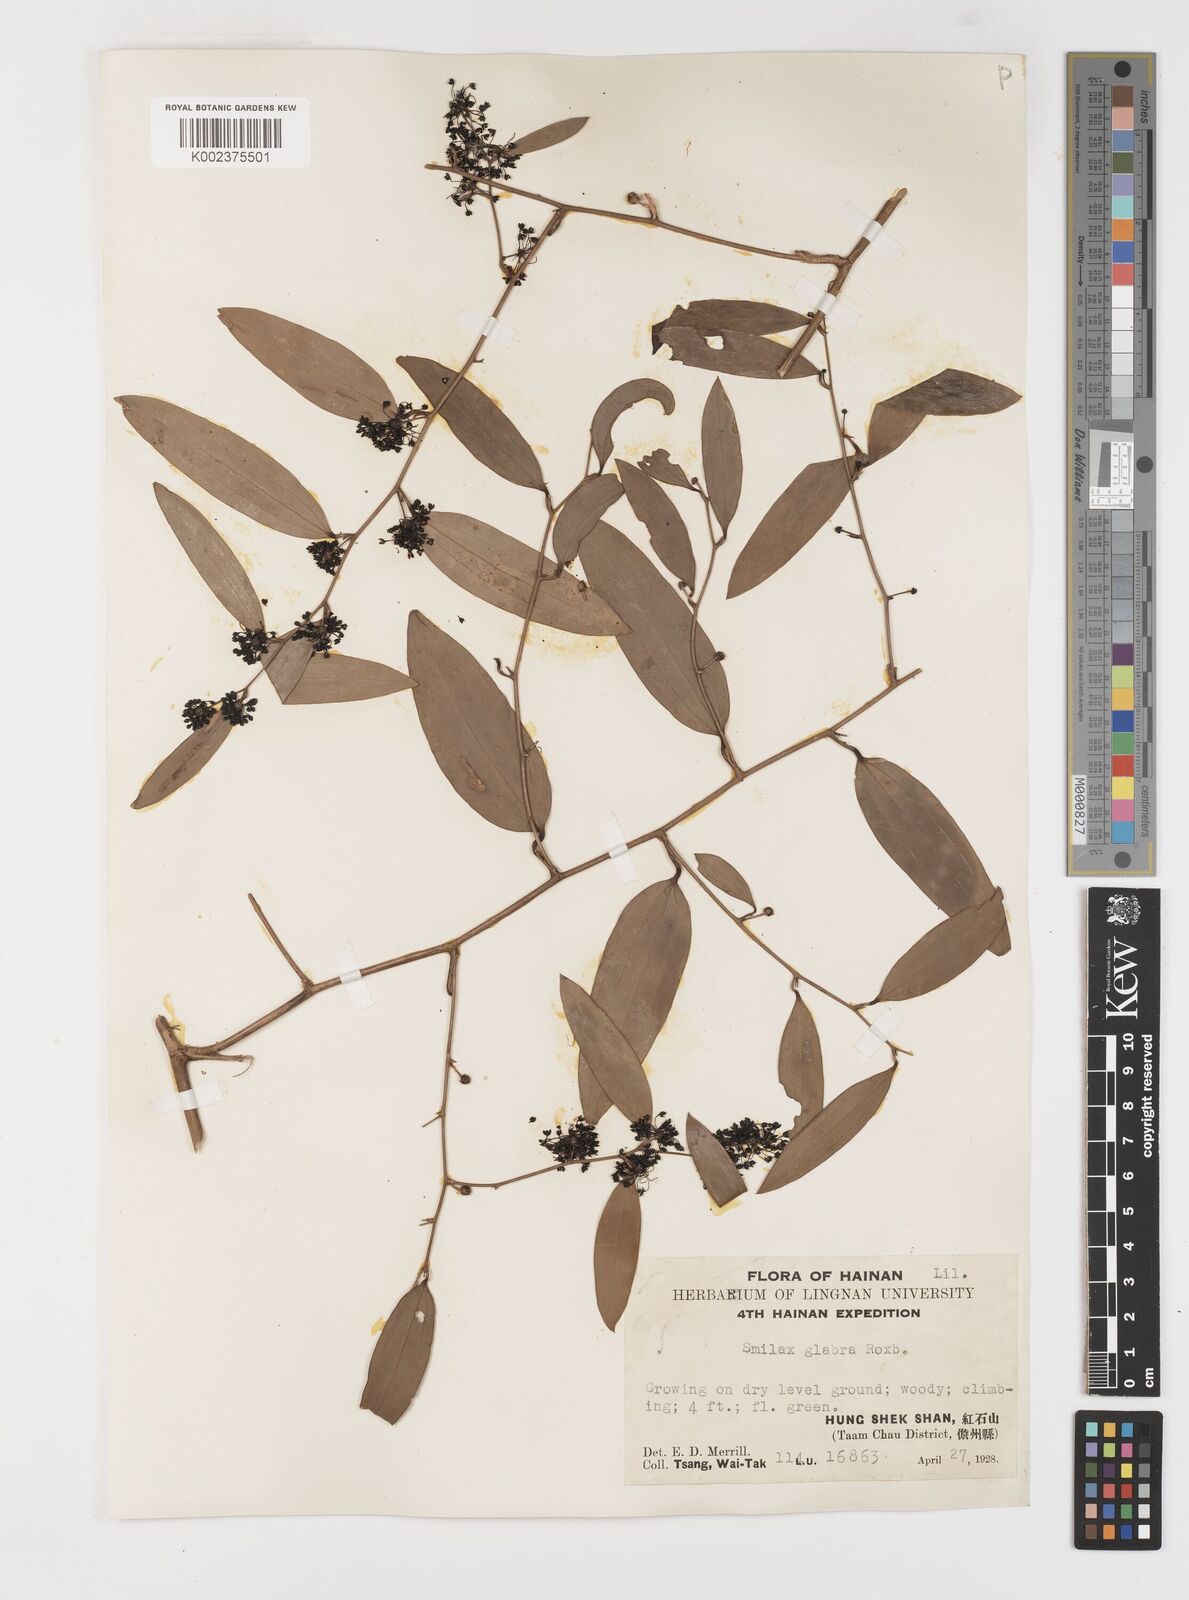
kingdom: Plantae
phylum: Tracheophyta
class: Liliopsida
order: Liliales
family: Smilacaceae
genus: Smilax
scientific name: Smilax glabra
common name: Chinese smilax
